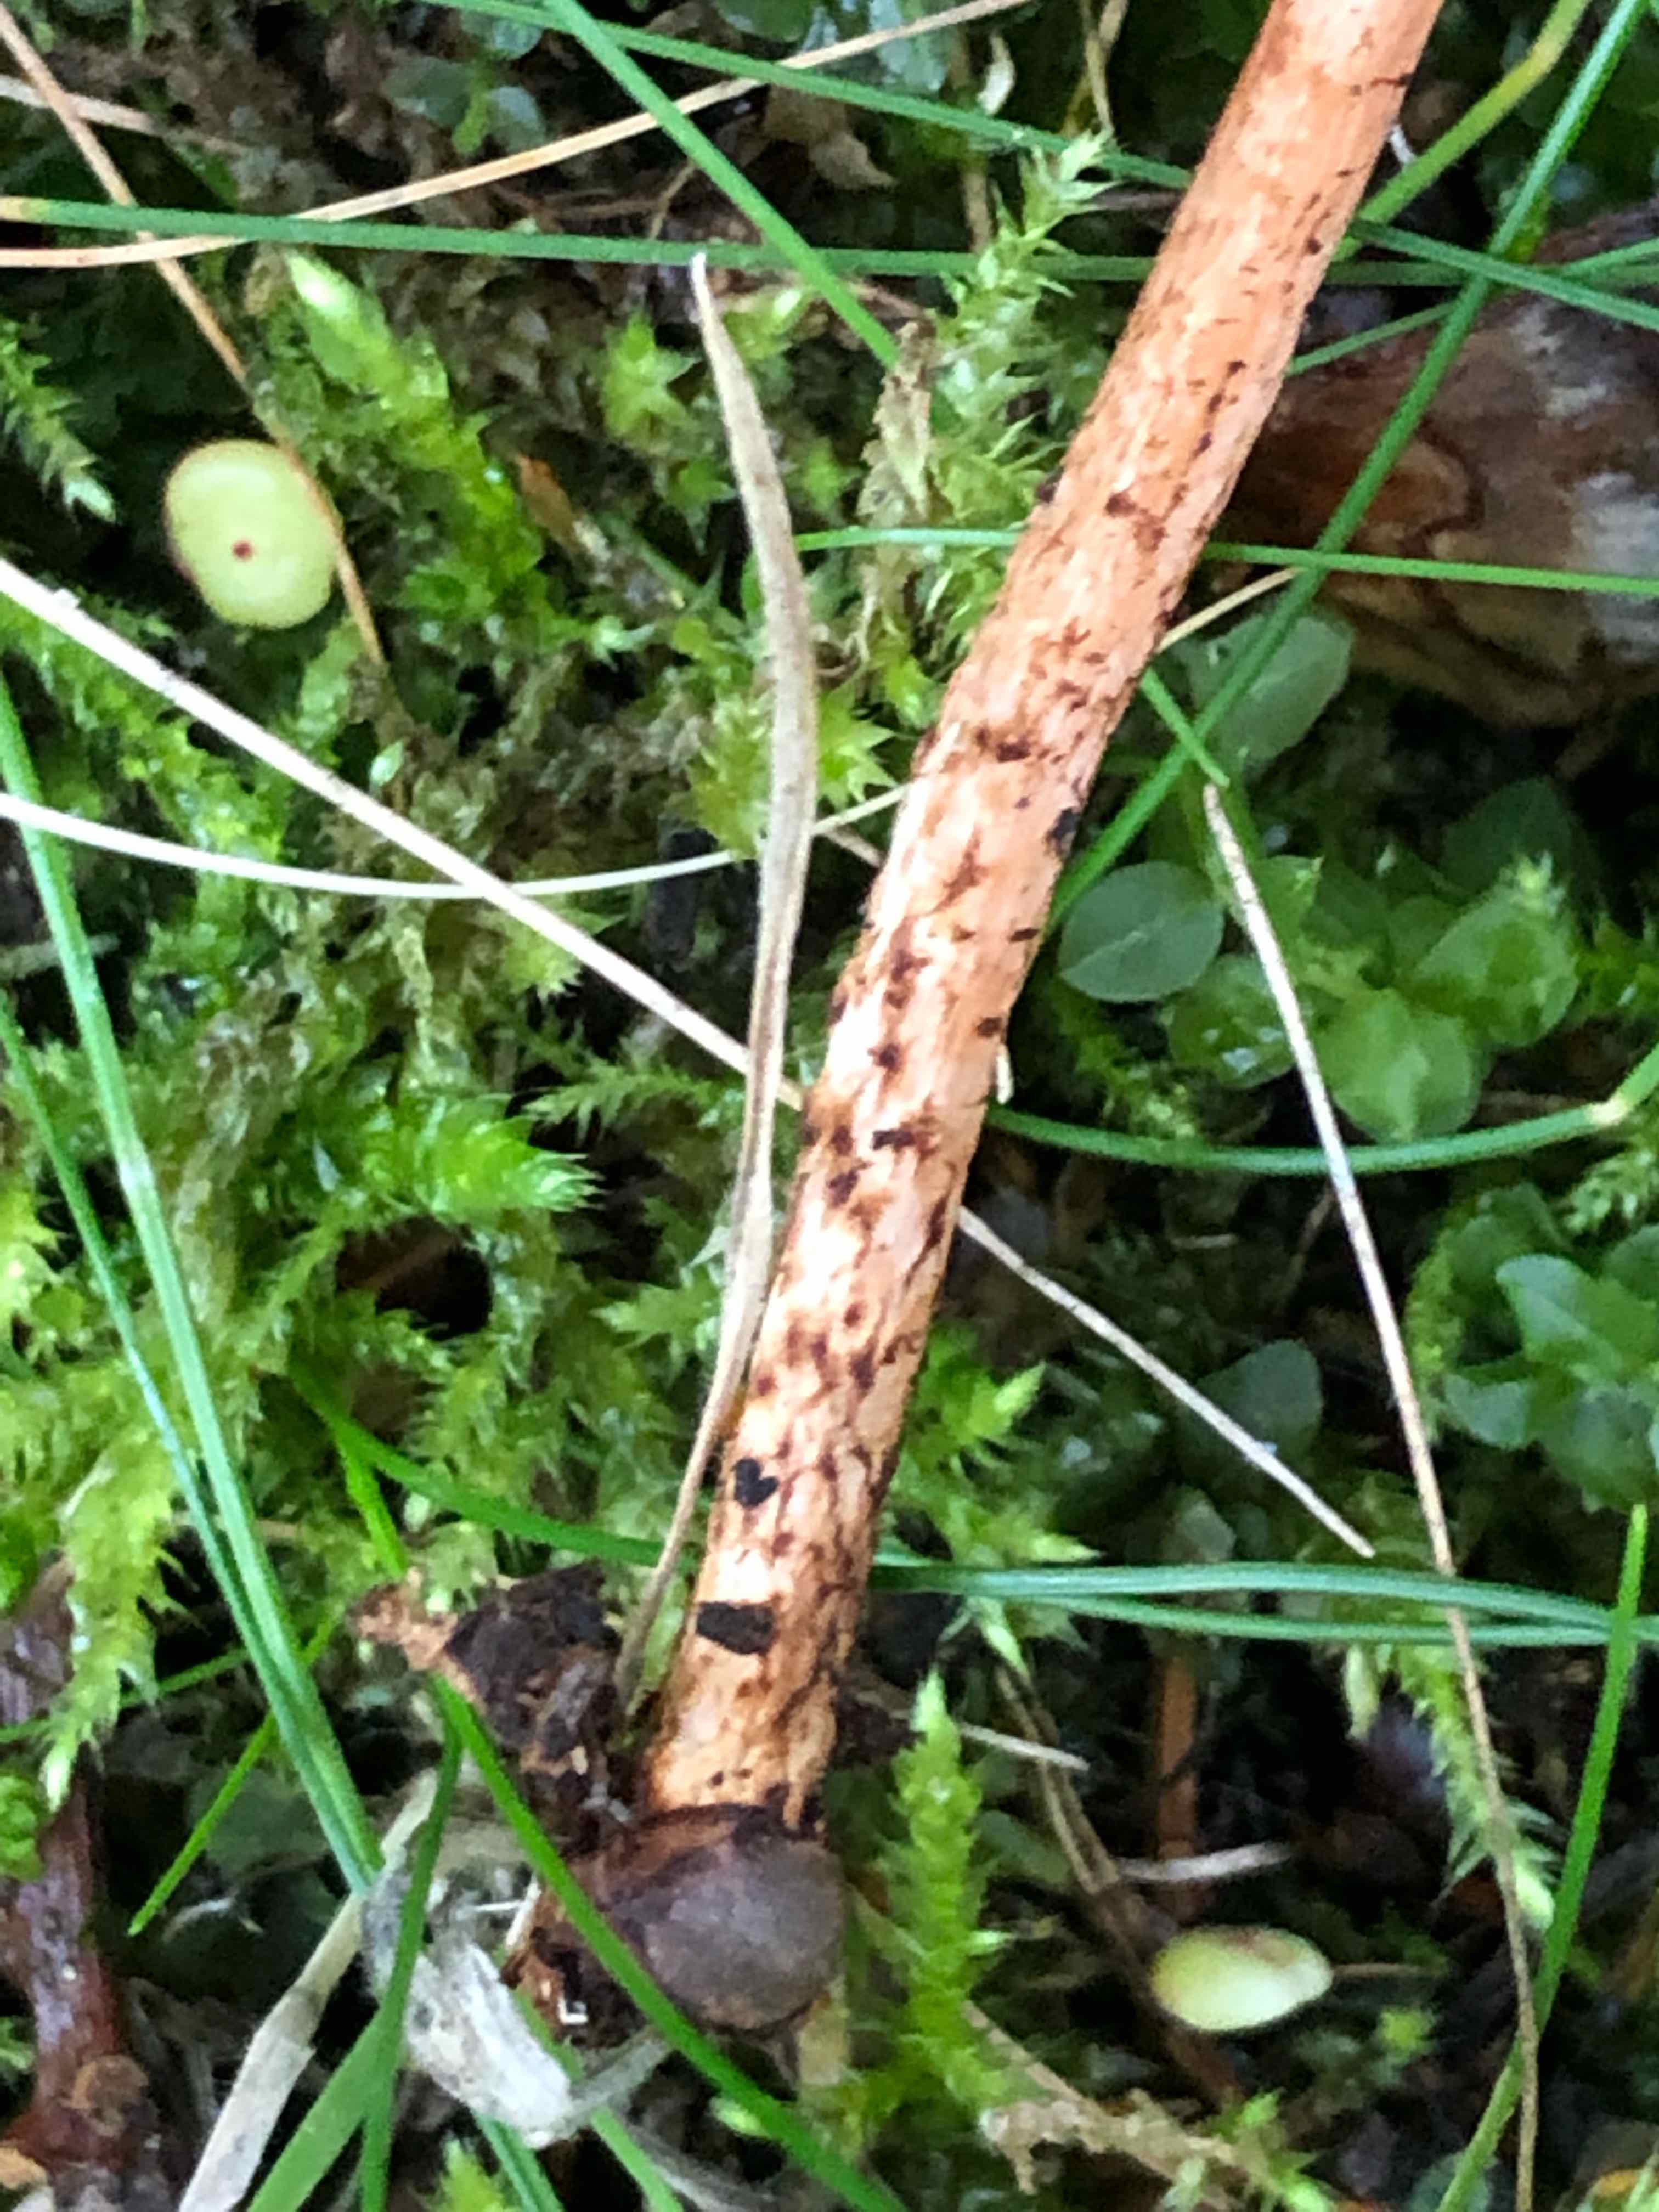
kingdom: Fungi
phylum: Basidiomycota
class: Agaricomycetes
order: Agaricales
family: Agaricaceae
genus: Lepiota
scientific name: Lepiota castanea
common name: kastaniebrun parasolhat
